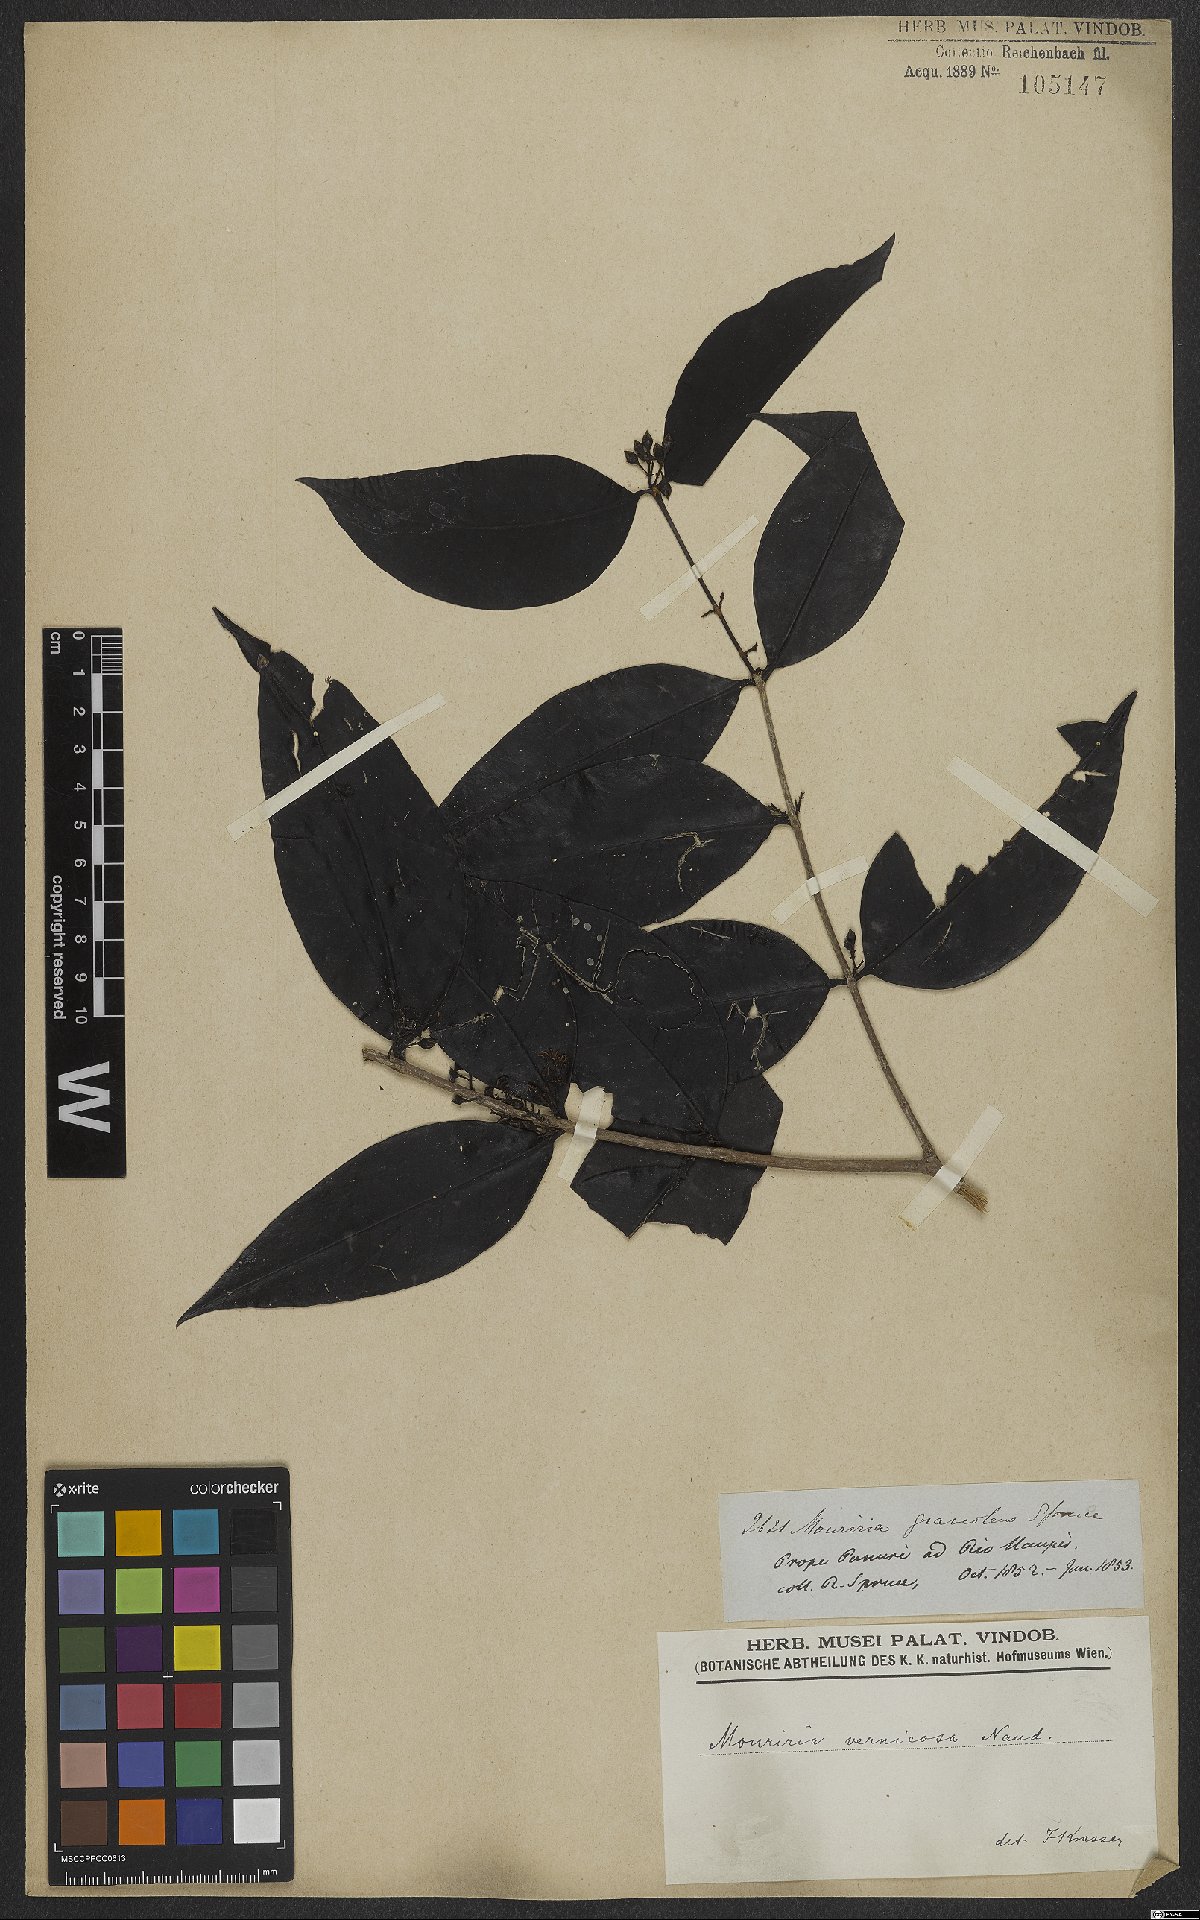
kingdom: Plantae
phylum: Tracheophyta
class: Magnoliopsida
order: Myrtales
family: Melastomataceae
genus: Mouriri
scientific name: Mouriri vernicosa
